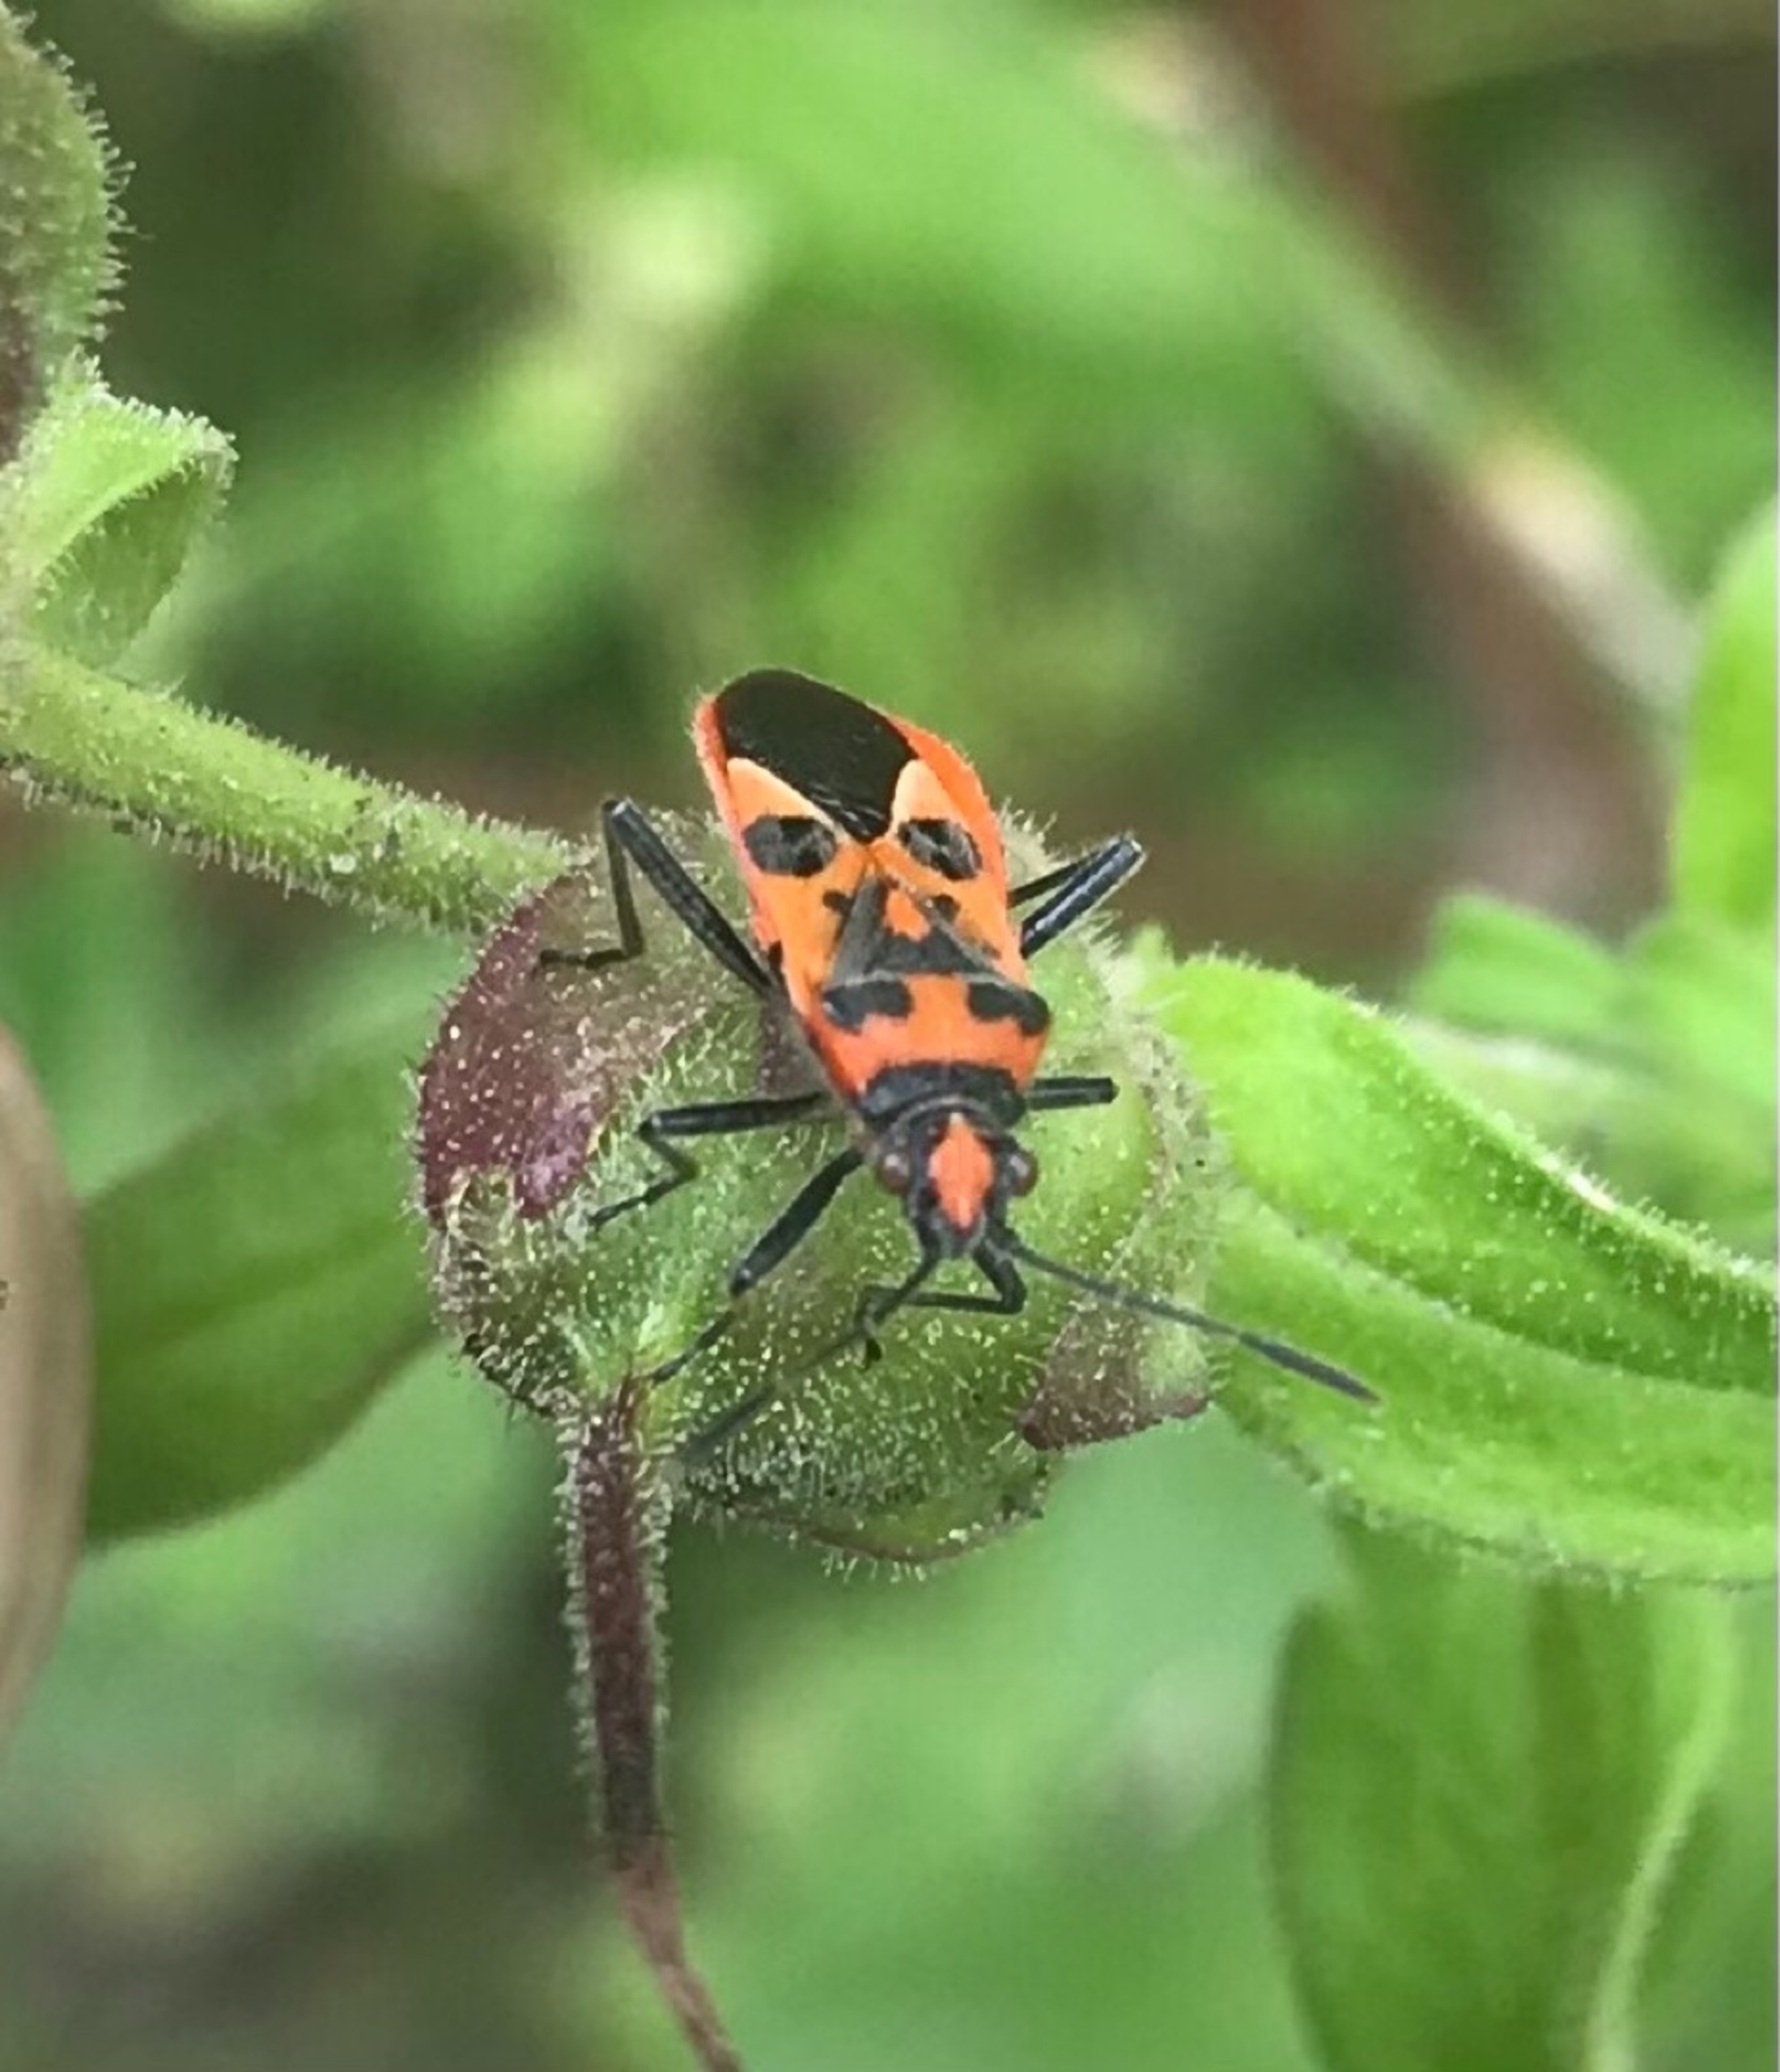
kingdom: Animalia
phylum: Arthropoda
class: Insecta
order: Hemiptera
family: Rhopalidae
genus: Corizus
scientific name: Corizus hyoscyami
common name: Rød kanttæge
